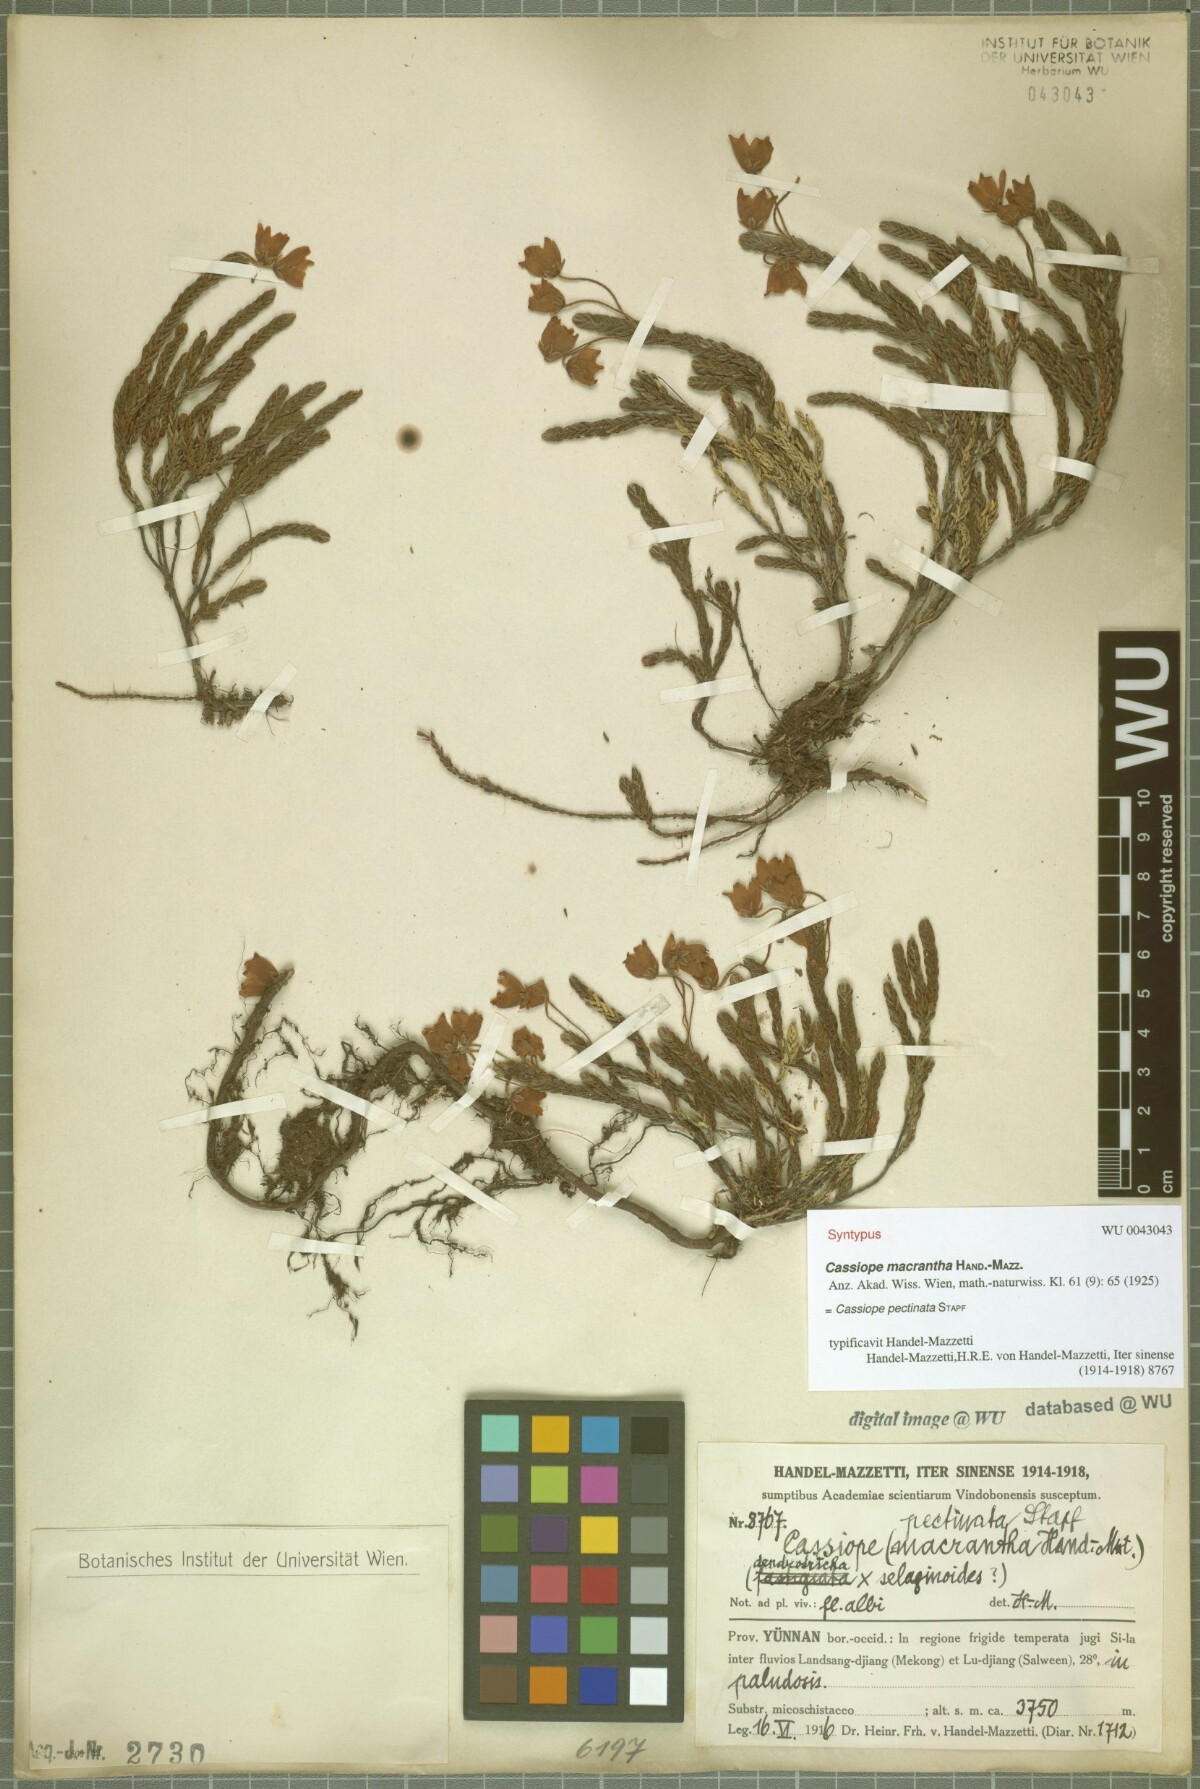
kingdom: Plantae
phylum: Tracheophyta
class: Magnoliopsida
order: Ericales
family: Ericaceae
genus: Cassiope
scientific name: Cassiope pectinata
